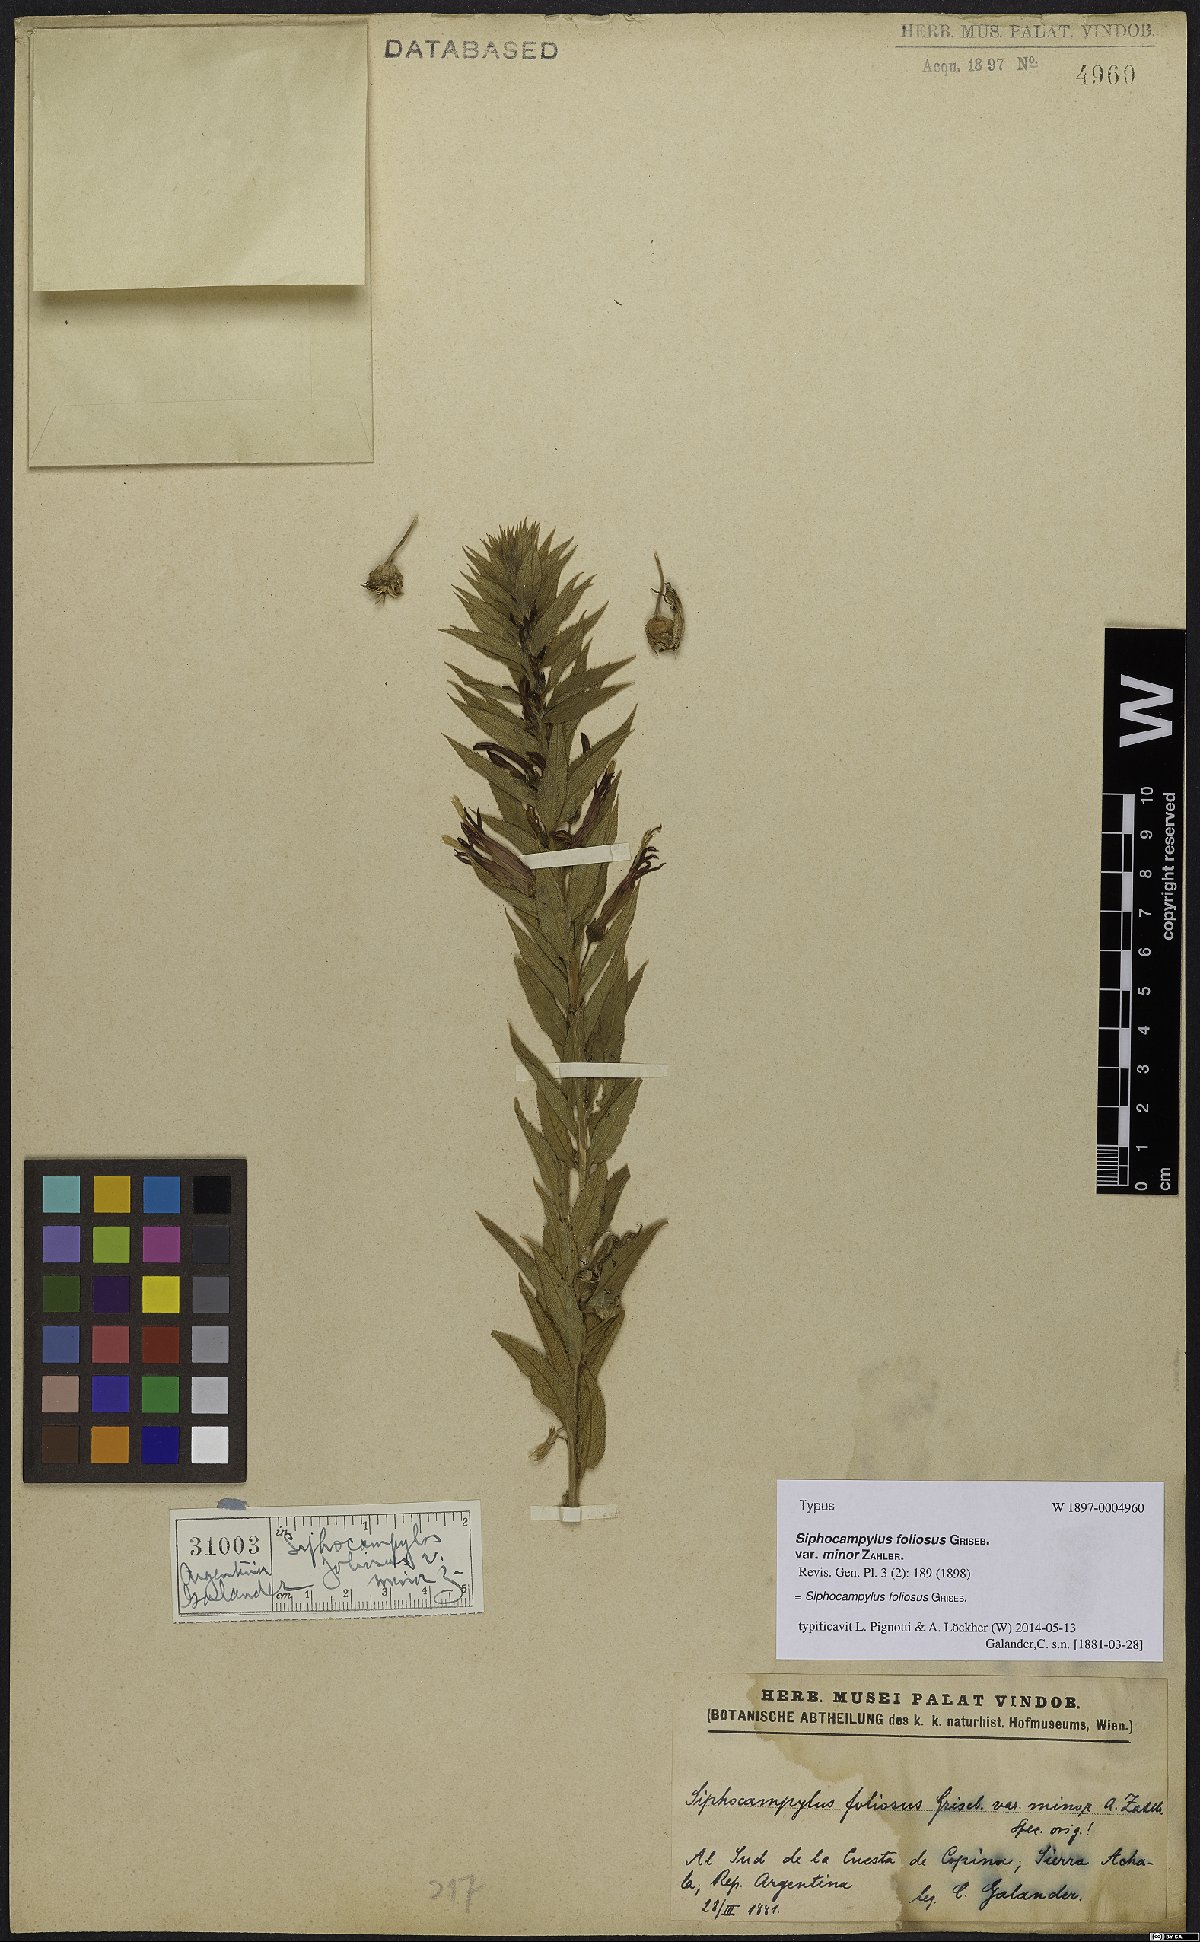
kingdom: Plantae
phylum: Tracheophyta
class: Magnoliopsida
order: Asterales
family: Campanulaceae
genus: Siphocampylus
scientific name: Siphocampylus foliosus
